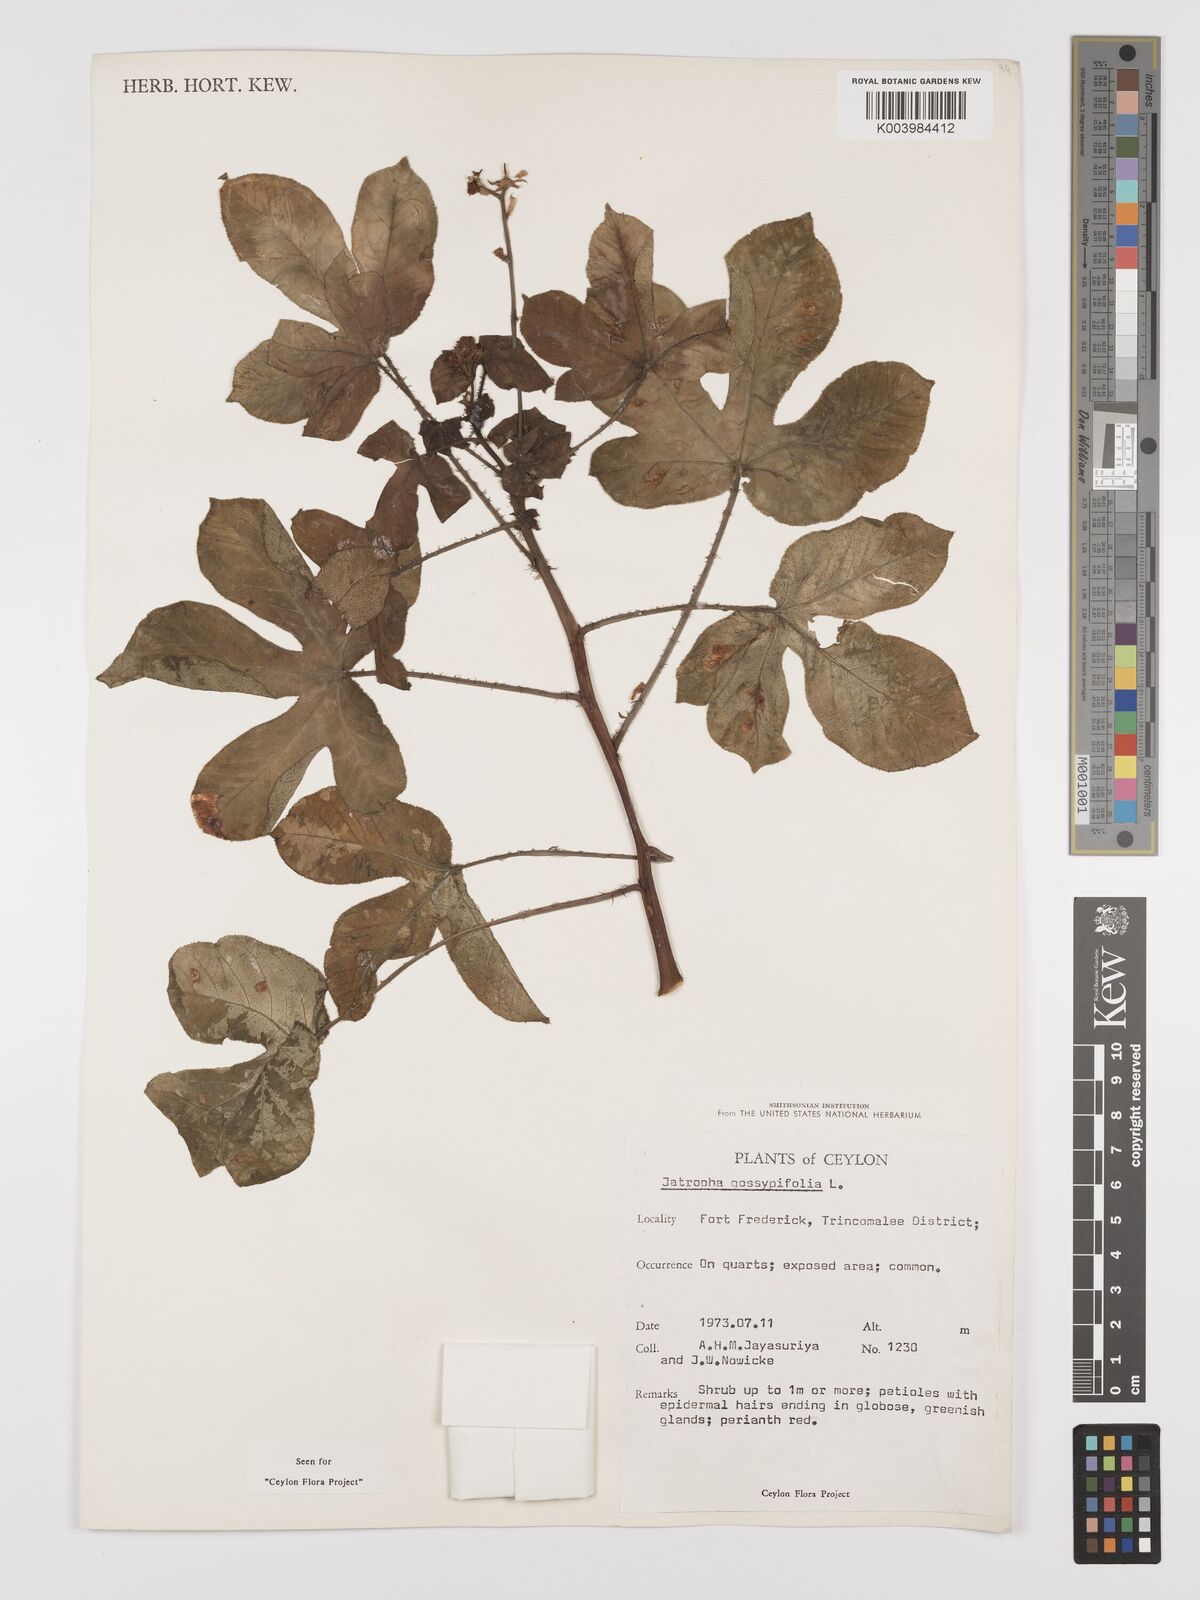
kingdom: Plantae
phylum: Tracheophyta
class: Magnoliopsida
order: Malpighiales
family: Euphorbiaceae
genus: Jatropha
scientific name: Jatropha gossypiifolia
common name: Bellyache bush
